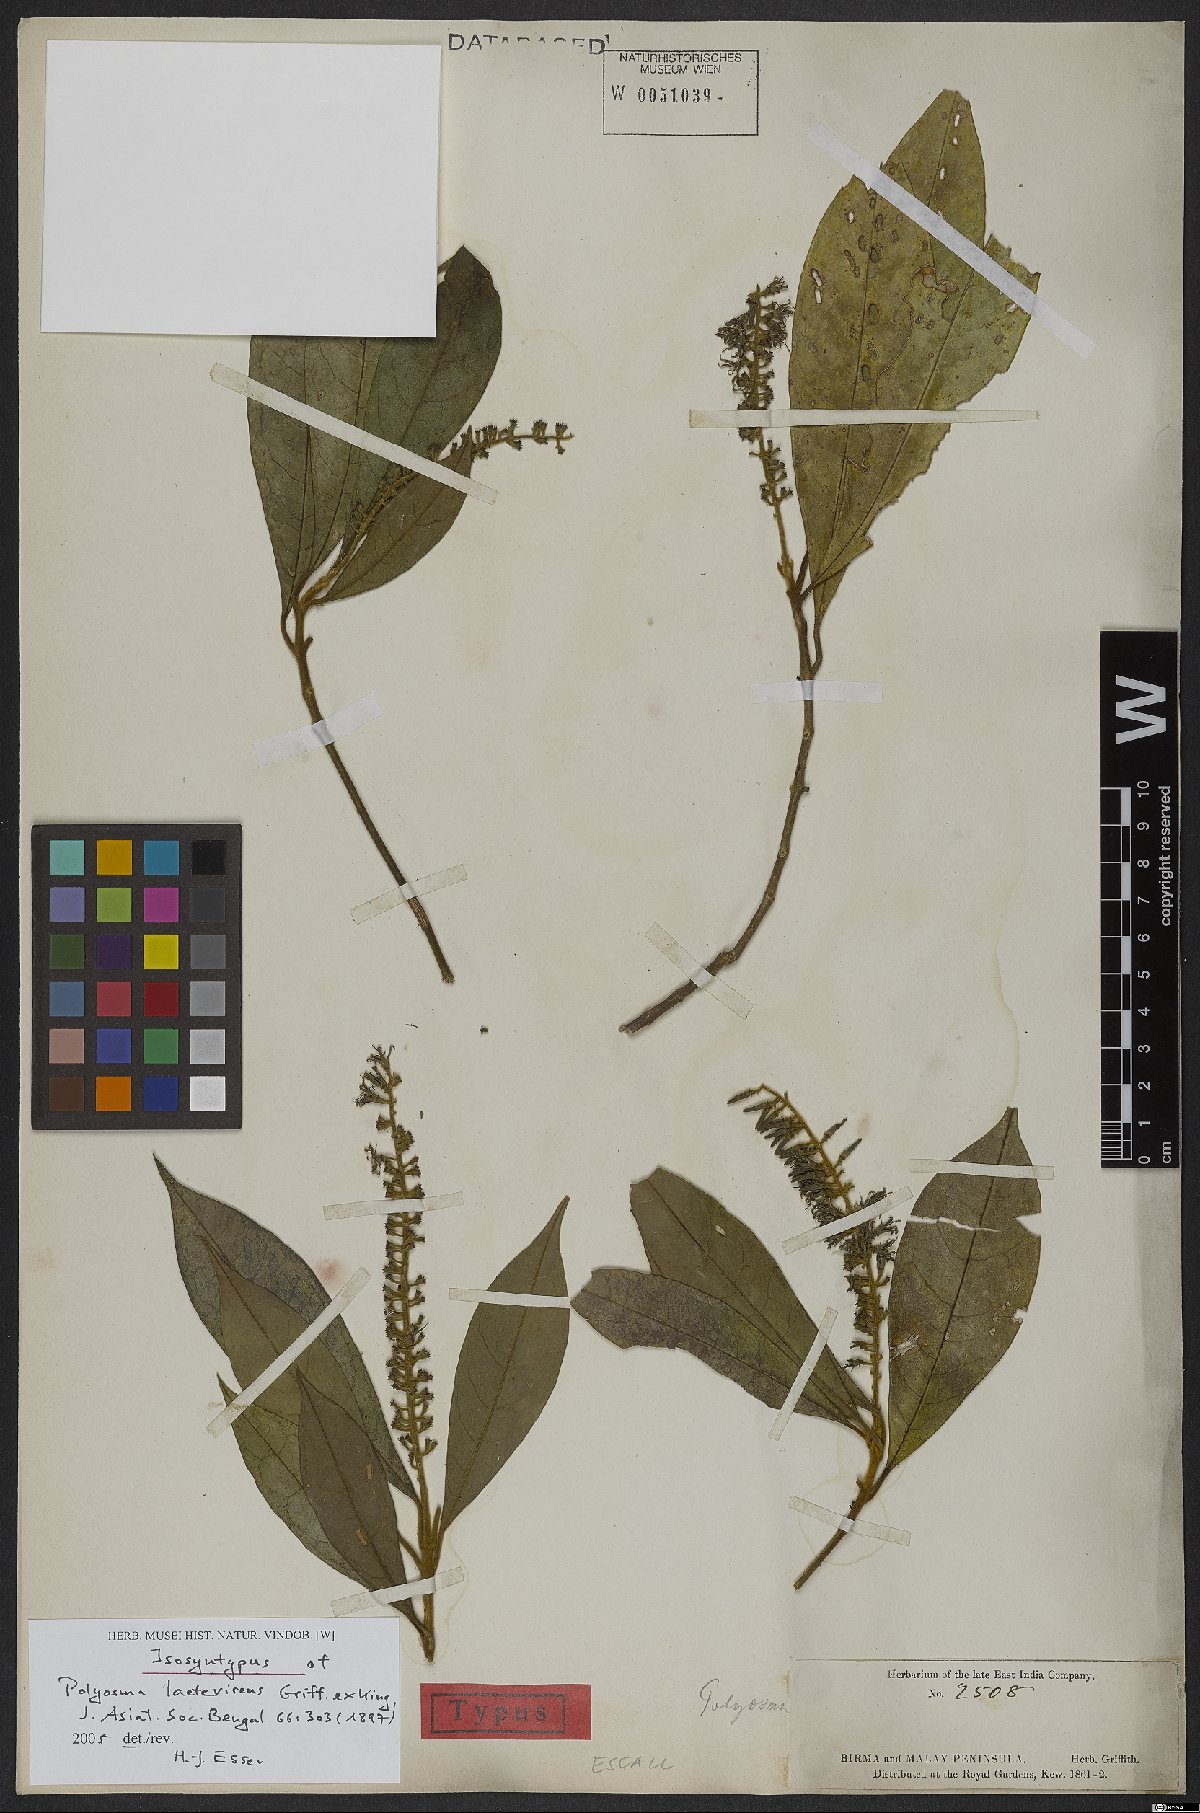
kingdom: Plantae
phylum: Tracheophyta
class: Magnoliopsida
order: Escalloniales
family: Escalloniaceae
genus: Polyosma
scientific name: Polyosma laetevirens
